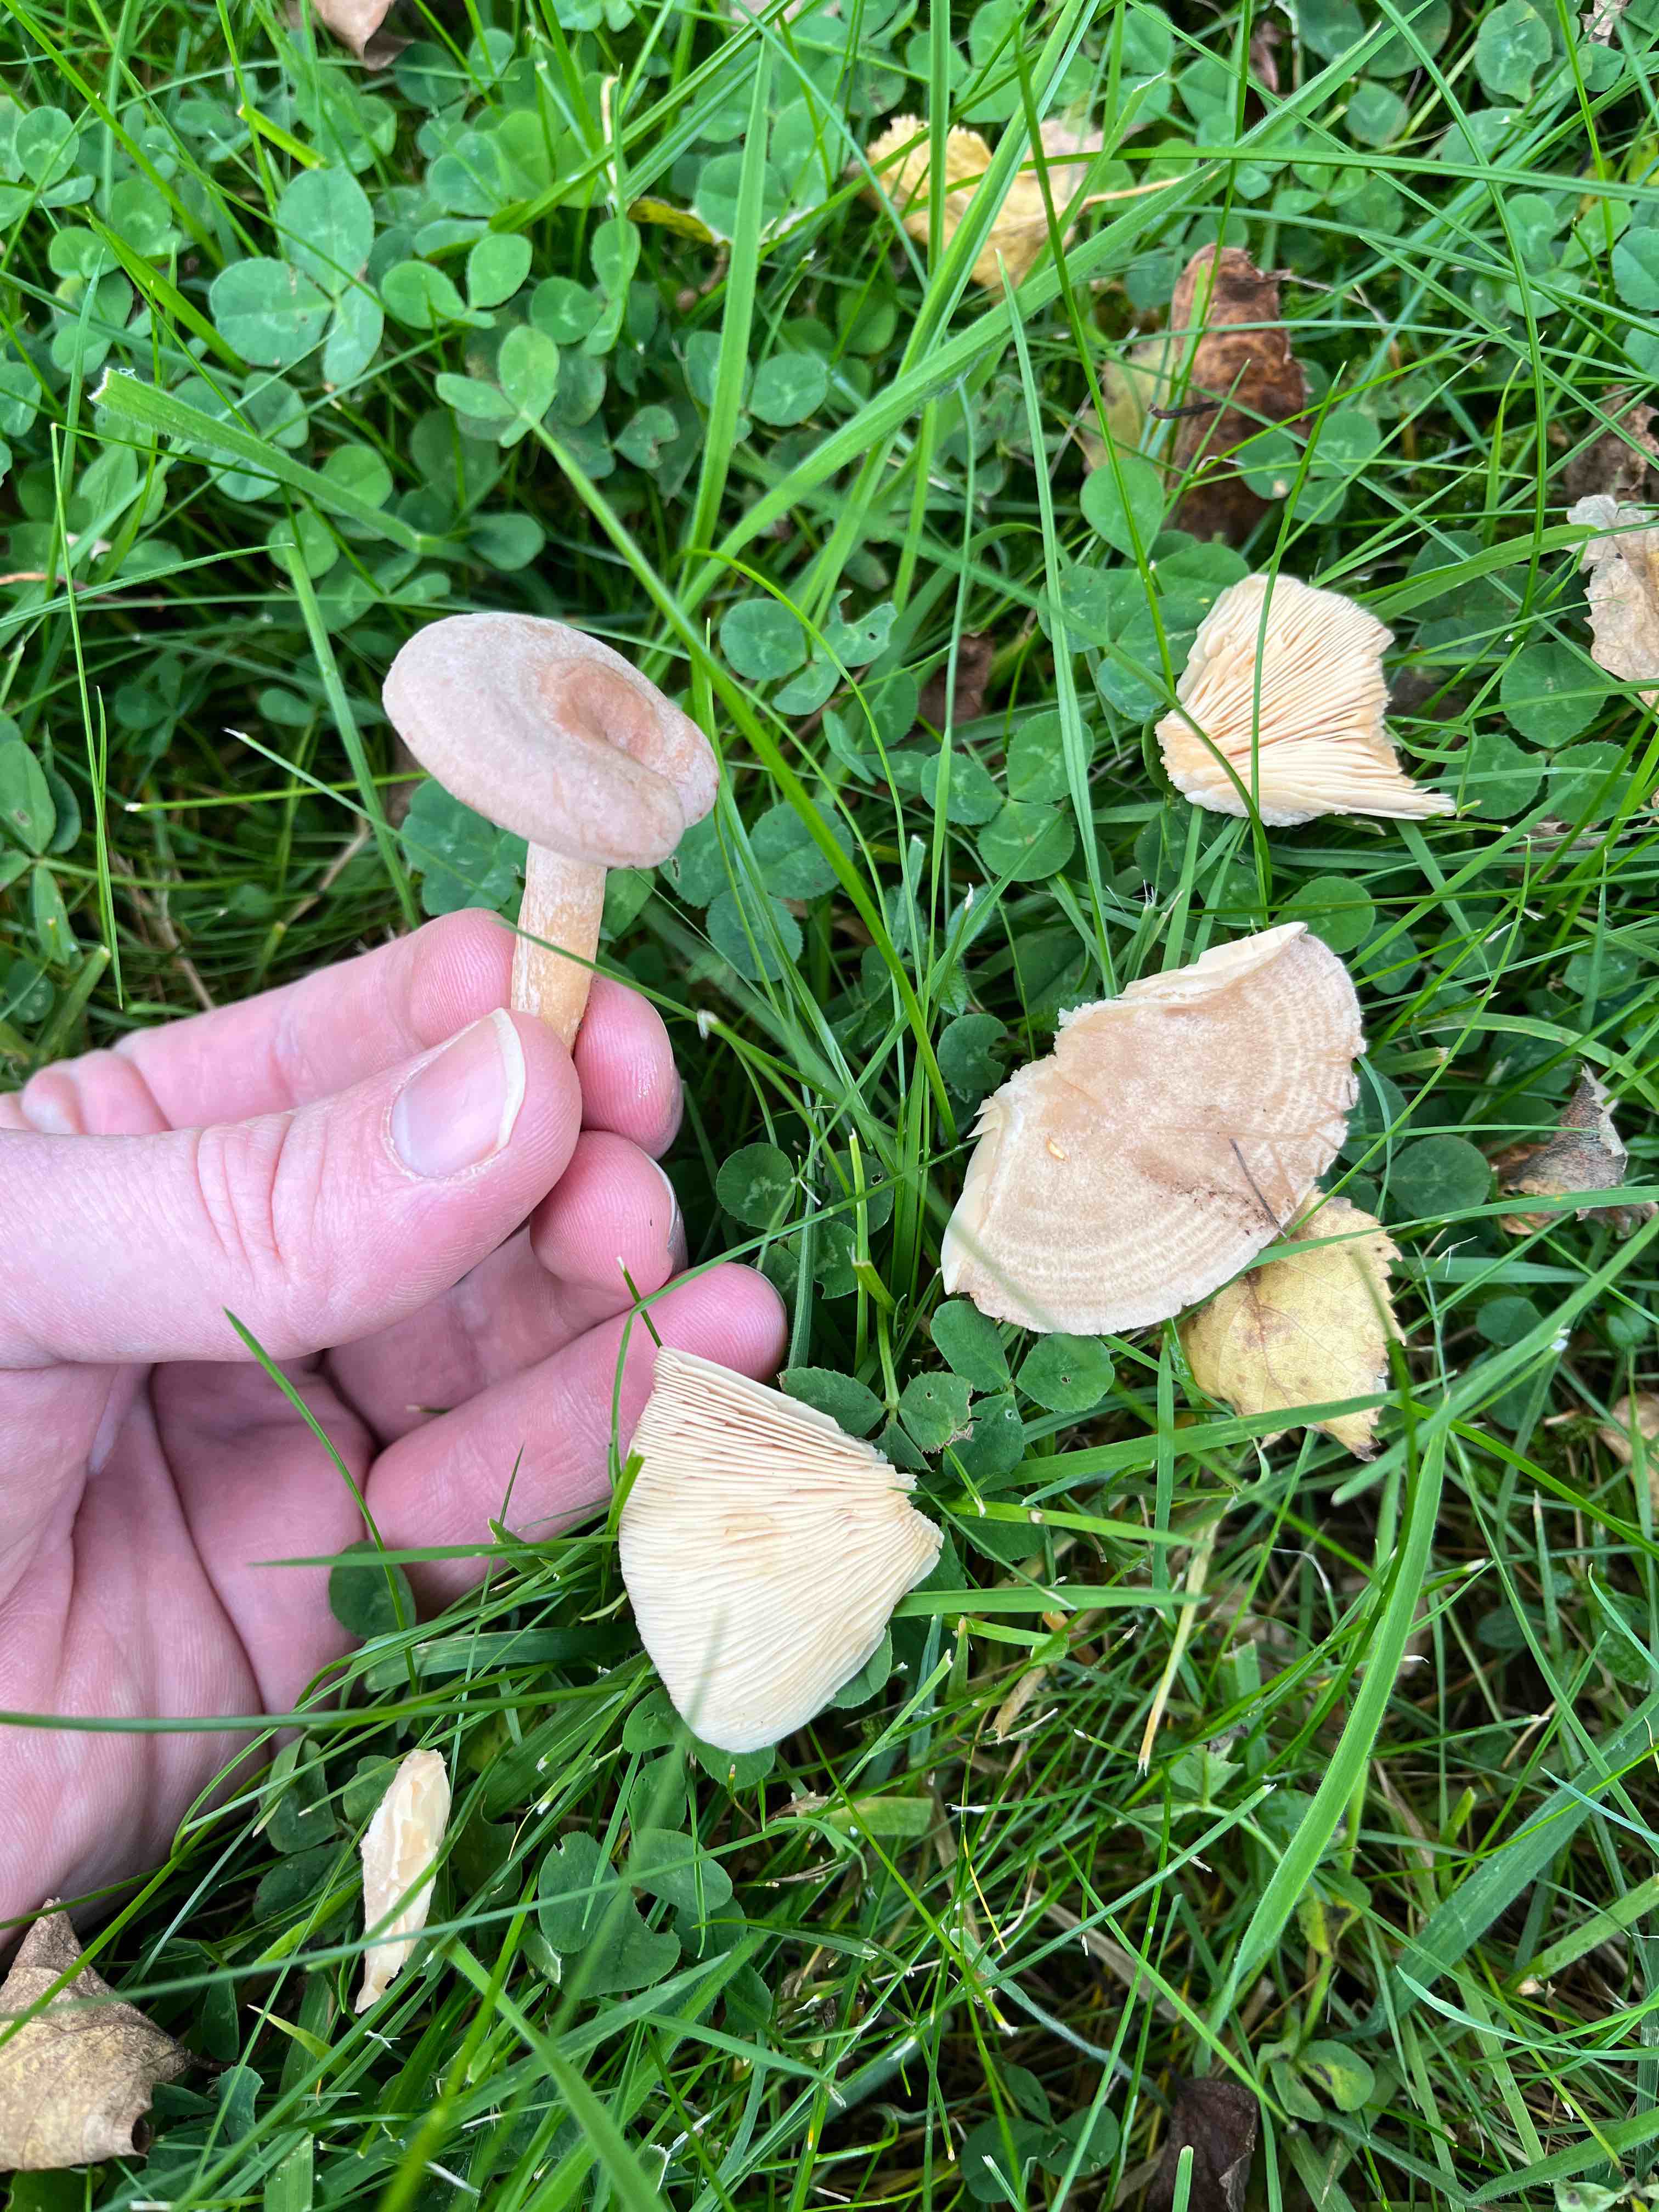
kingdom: Fungi
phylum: Basidiomycota
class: Agaricomycetes
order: Russulales
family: Russulaceae
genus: Lactarius
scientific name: Lactarius
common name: mælkehat
